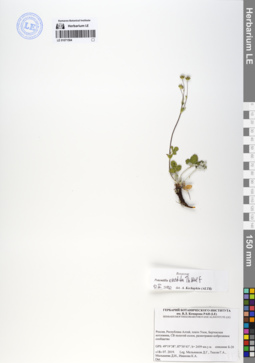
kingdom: Plantae
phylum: Tracheophyta
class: Magnoliopsida
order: Rosales
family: Rosaceae
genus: Potentilla
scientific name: Potentilla evestita
